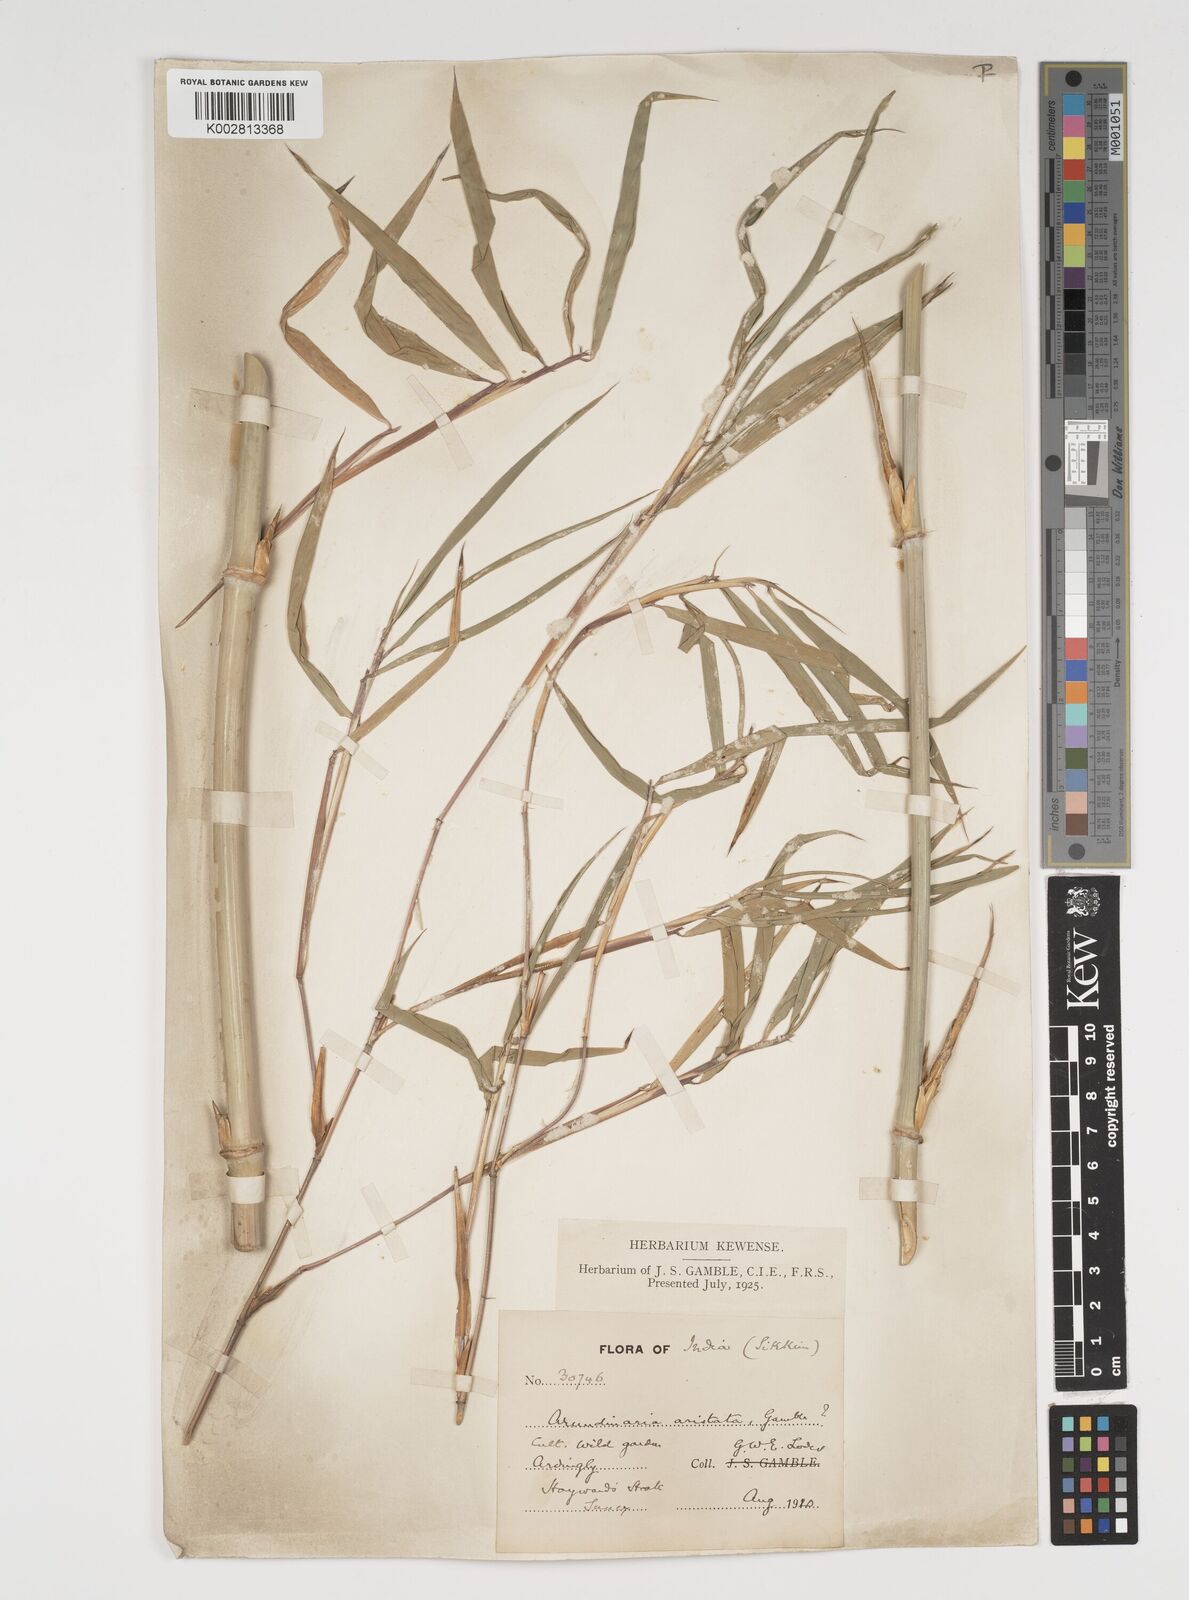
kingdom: Plantae
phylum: Tracheophyta
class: Liliopsida
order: Poales
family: Poaceae
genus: Thamnocalamus
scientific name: Thamnocalamus spathiflorus
